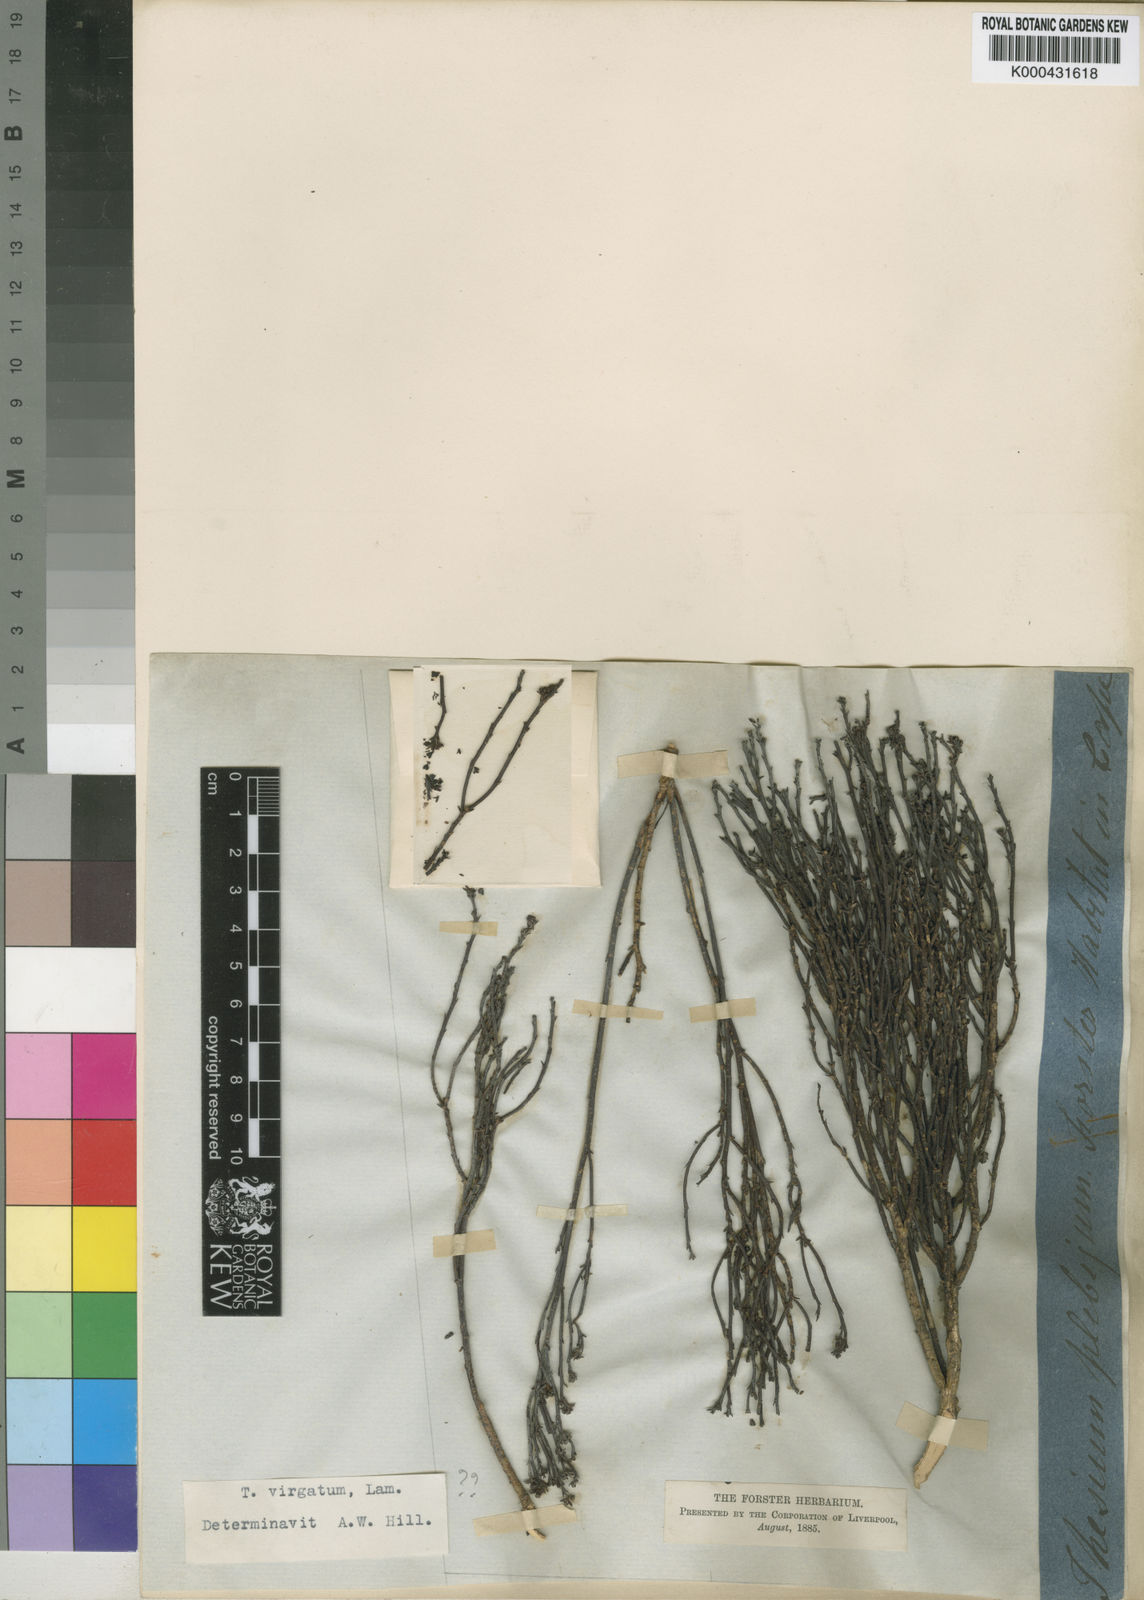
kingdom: Plantae
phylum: Tracheophyta
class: Magnoliopsida
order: Santalales
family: Thesiaceae
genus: Thesium
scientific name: Thesium virgatum
